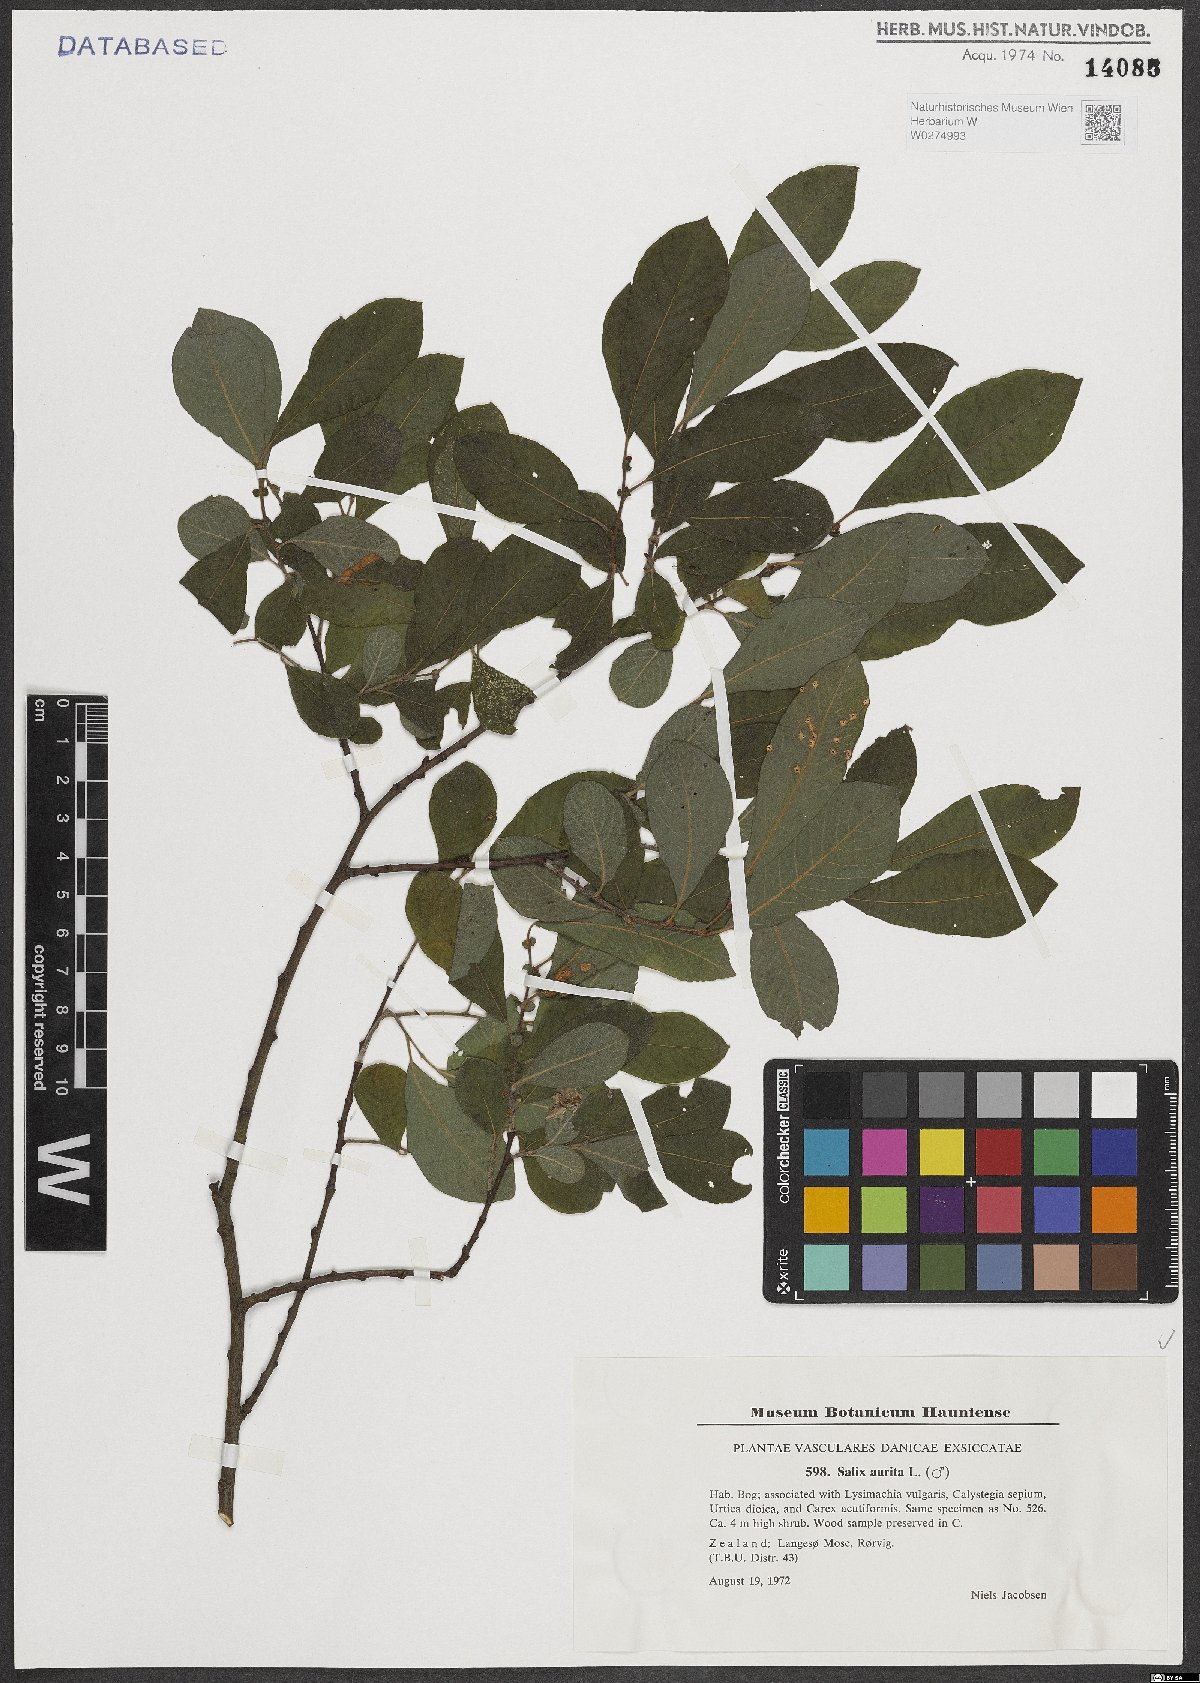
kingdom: Plantae
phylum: Tracheophyta
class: Magnoliopsida
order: Malpighiales
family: Salicaceae
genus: Salix
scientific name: Salix aurita
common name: Eared willow
